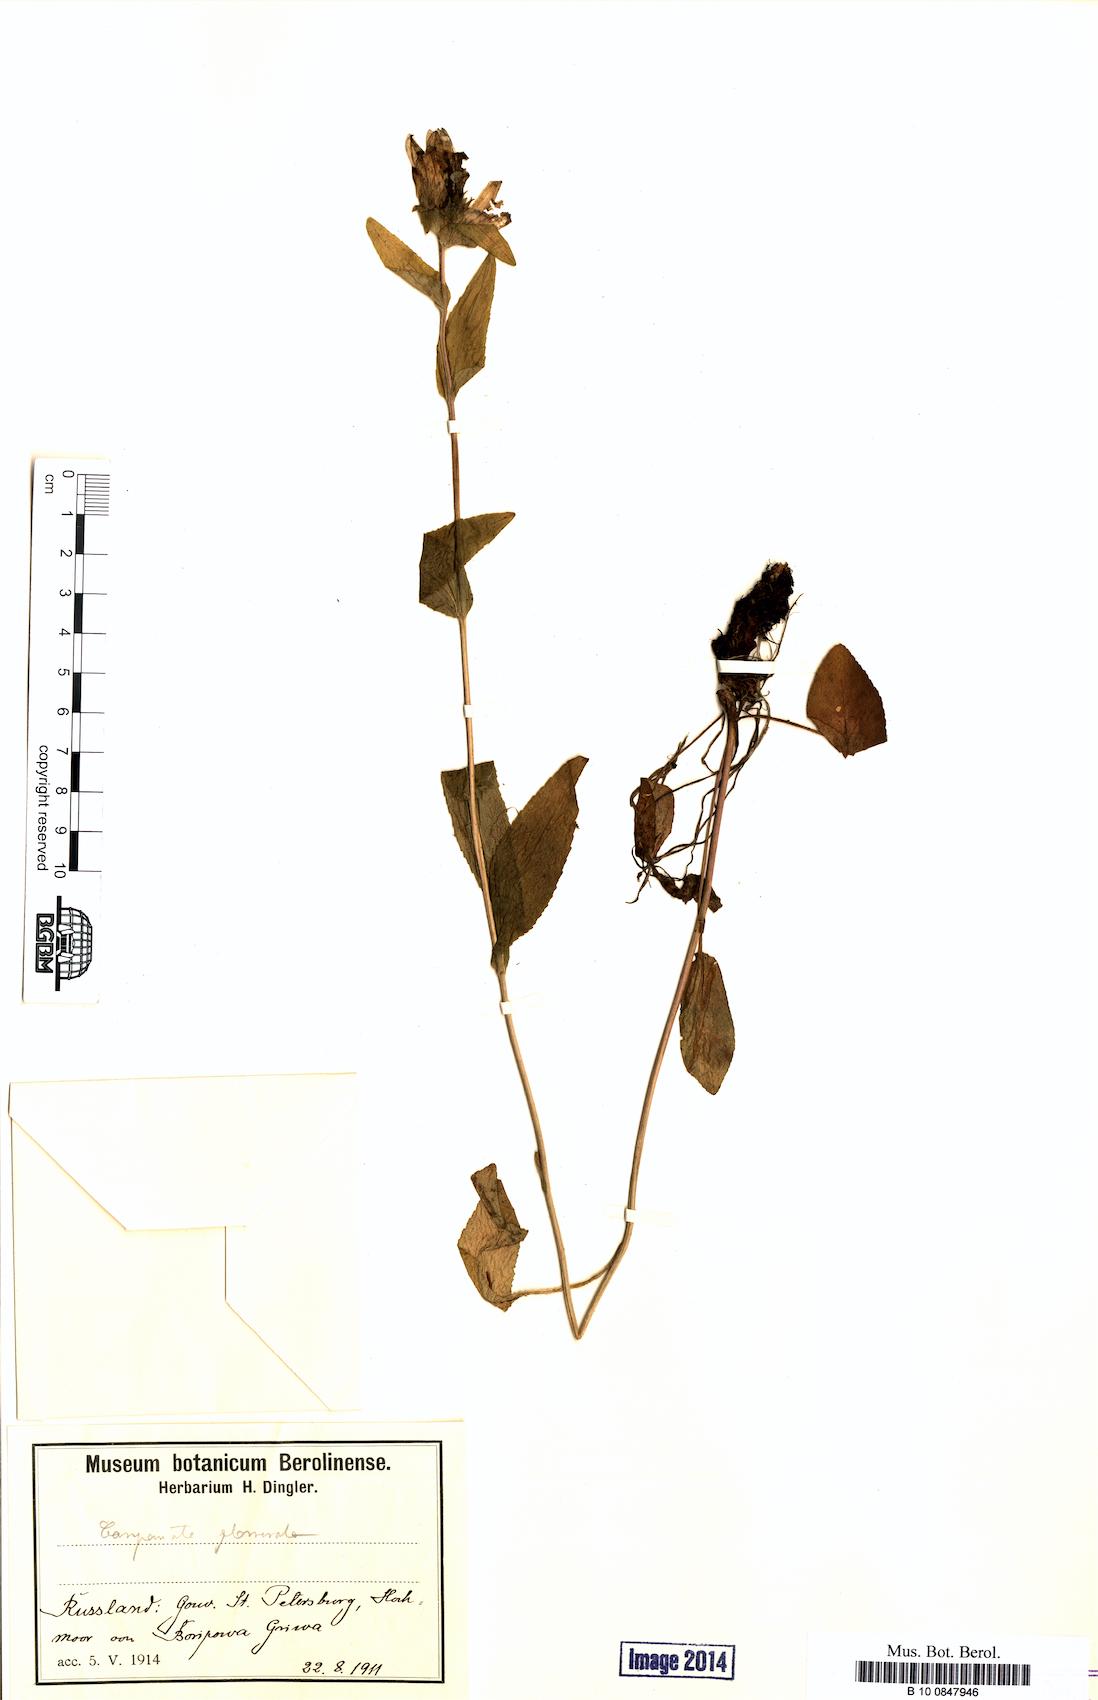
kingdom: Plantae
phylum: Tracheophyta
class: Magnoliopsida
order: Asterales
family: Campanulaceae
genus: Campanula
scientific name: Campanula glomerata
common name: Clustered bellflower
